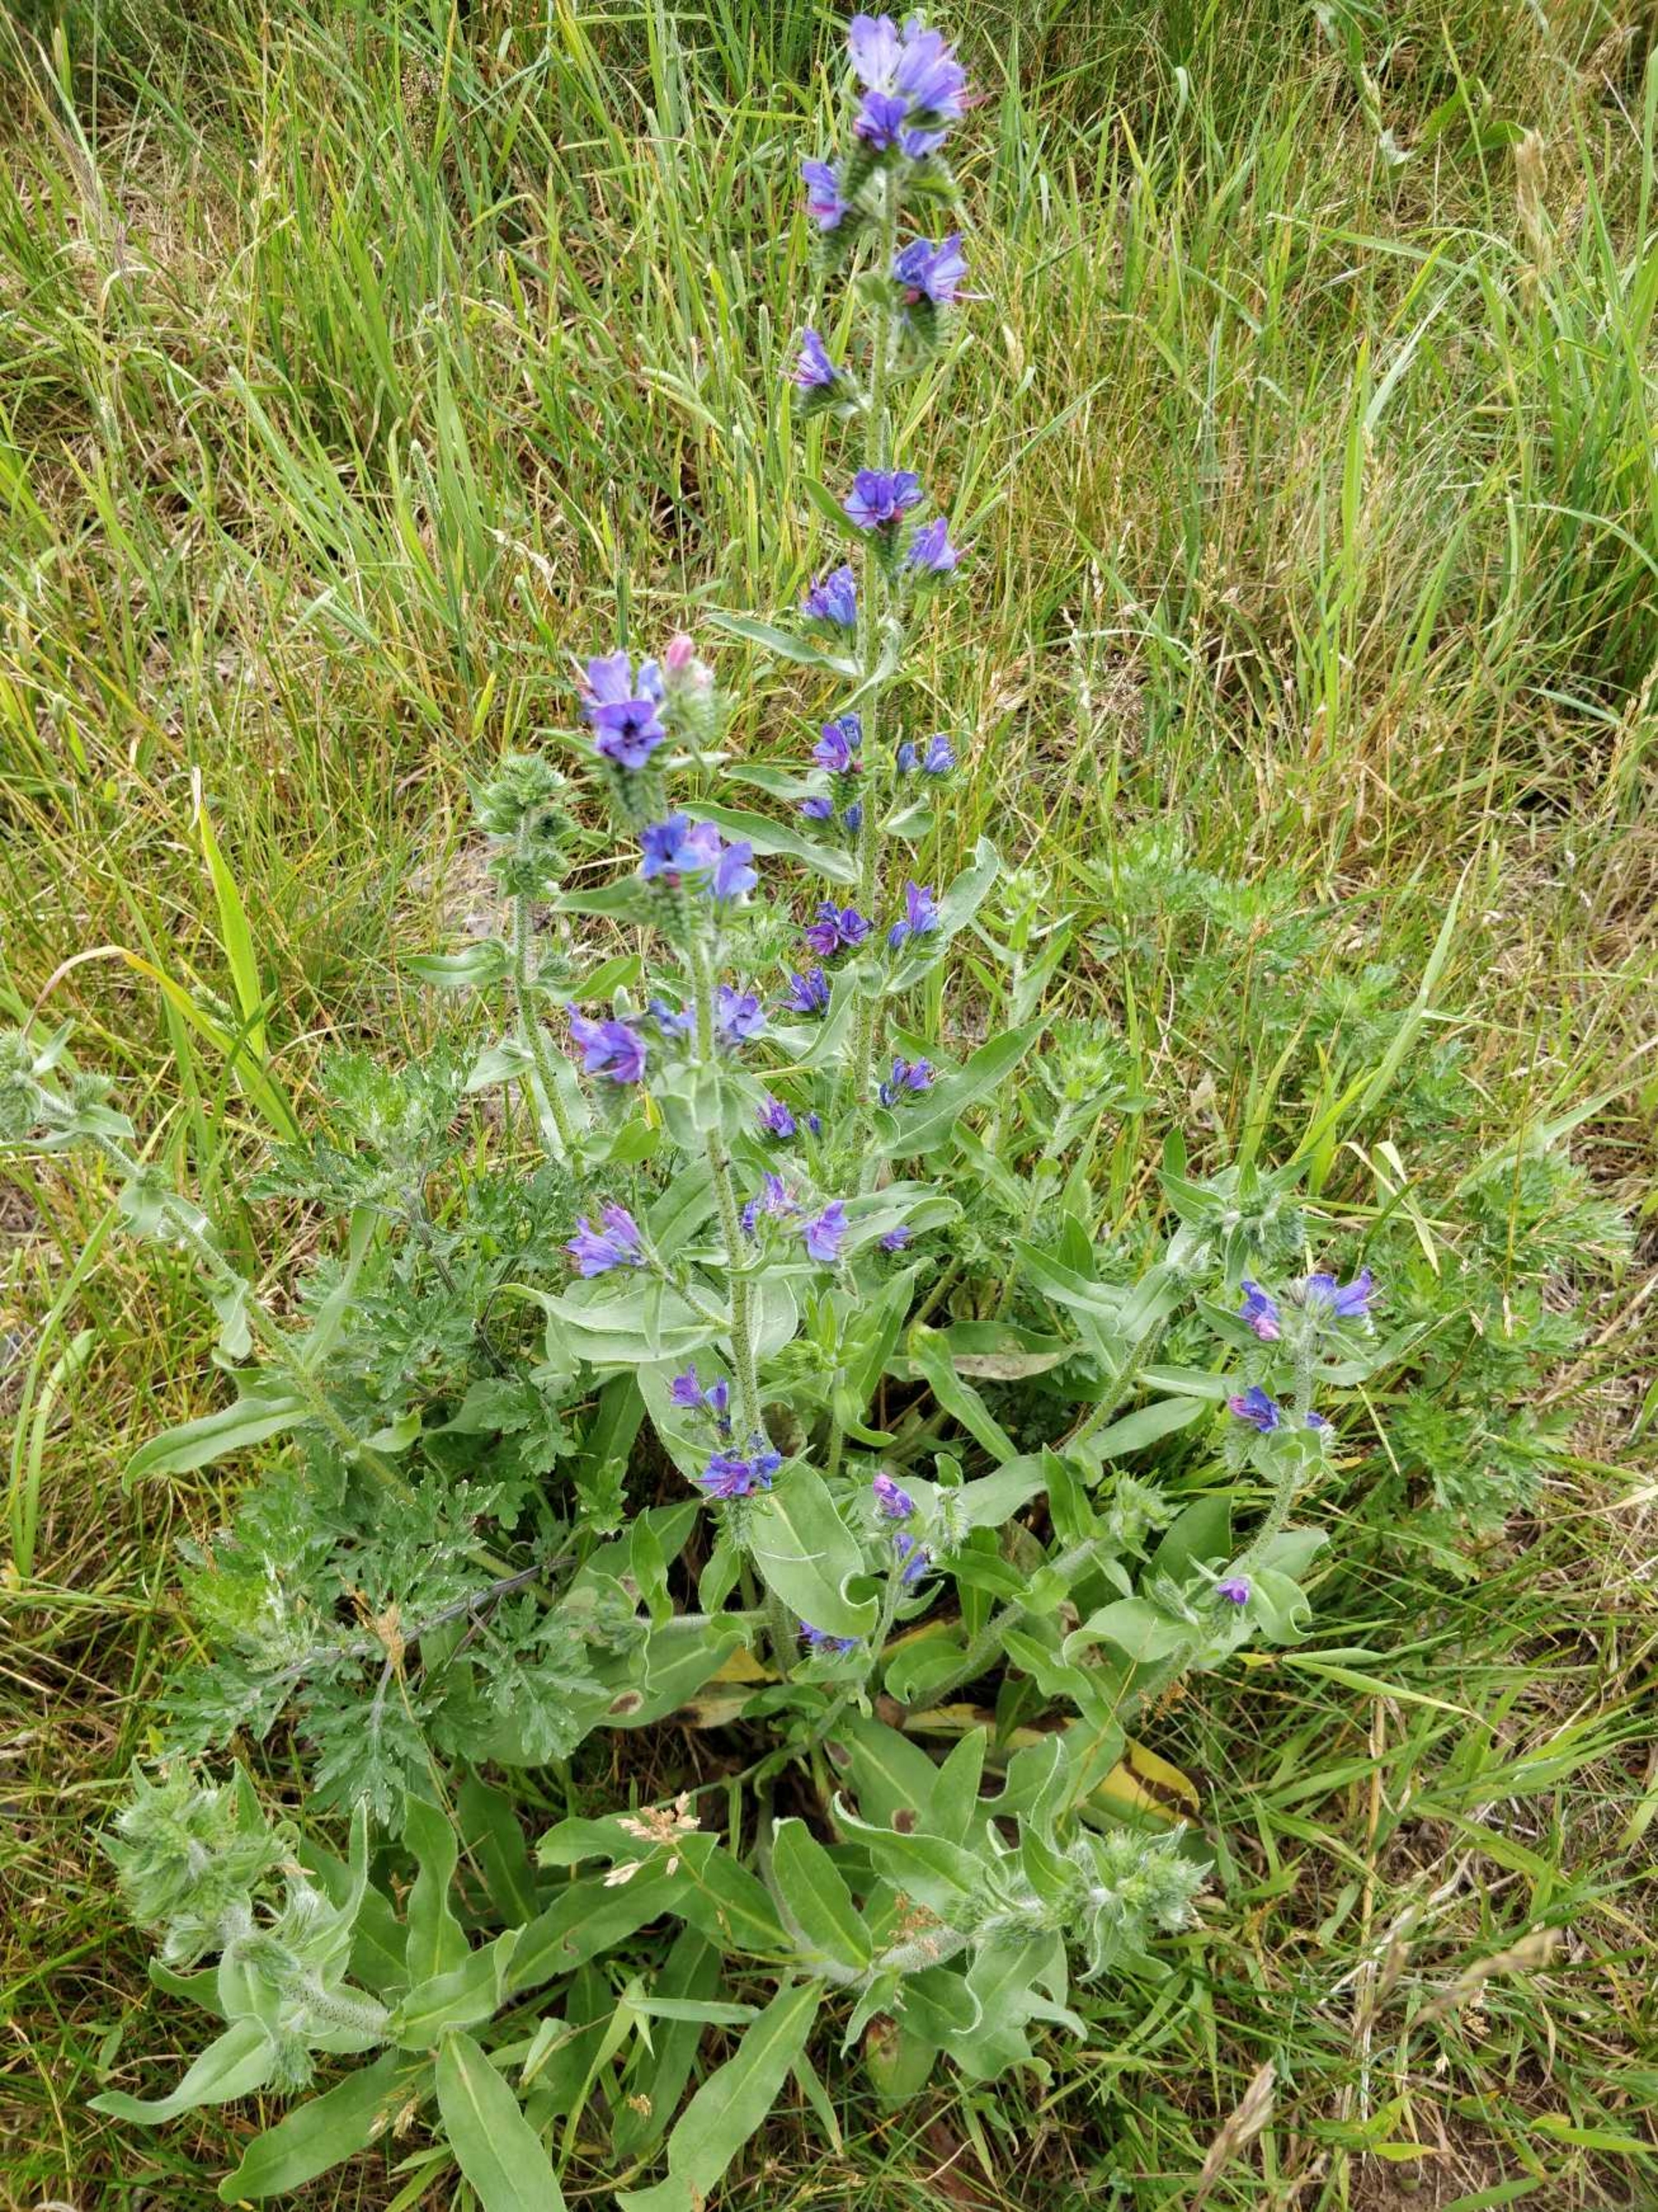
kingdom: Plantae
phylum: Tracheophyta
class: Magnoliopsida
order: Boraginales
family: Boraginaceae
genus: Echium
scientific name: Echium vulgare
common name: Slangehoved
